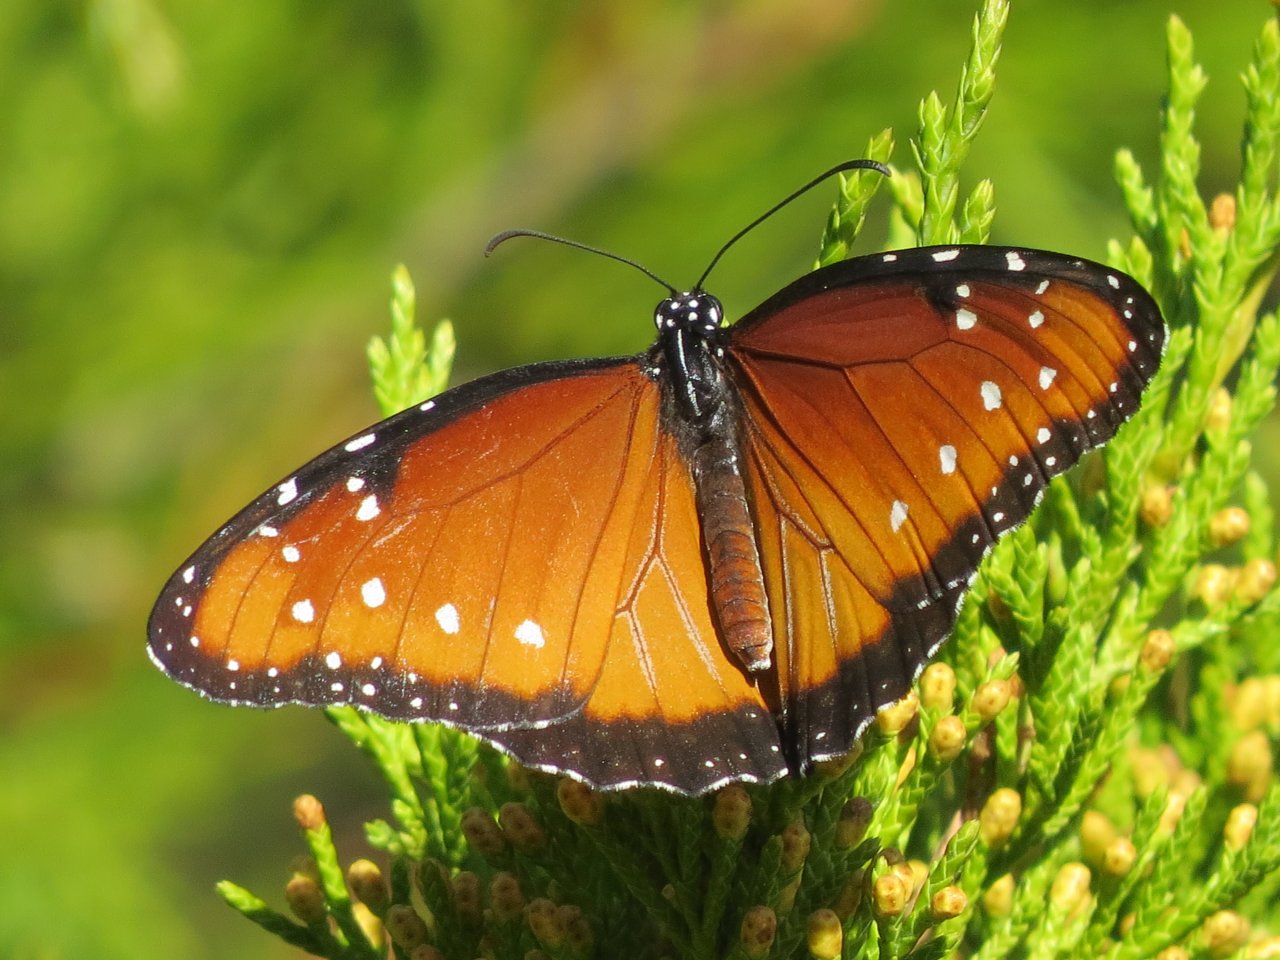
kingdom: Animalia
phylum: Arthropoda
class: Insecta
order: Lepidoptera
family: Nymphalidae
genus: Danaus
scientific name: Danaus gilippus
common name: Queen
